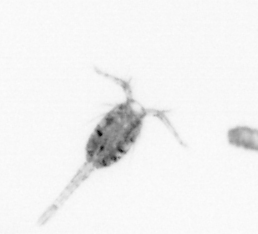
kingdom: Animalia
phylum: Arthropoda
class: Copepoda
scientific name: Copepoda
